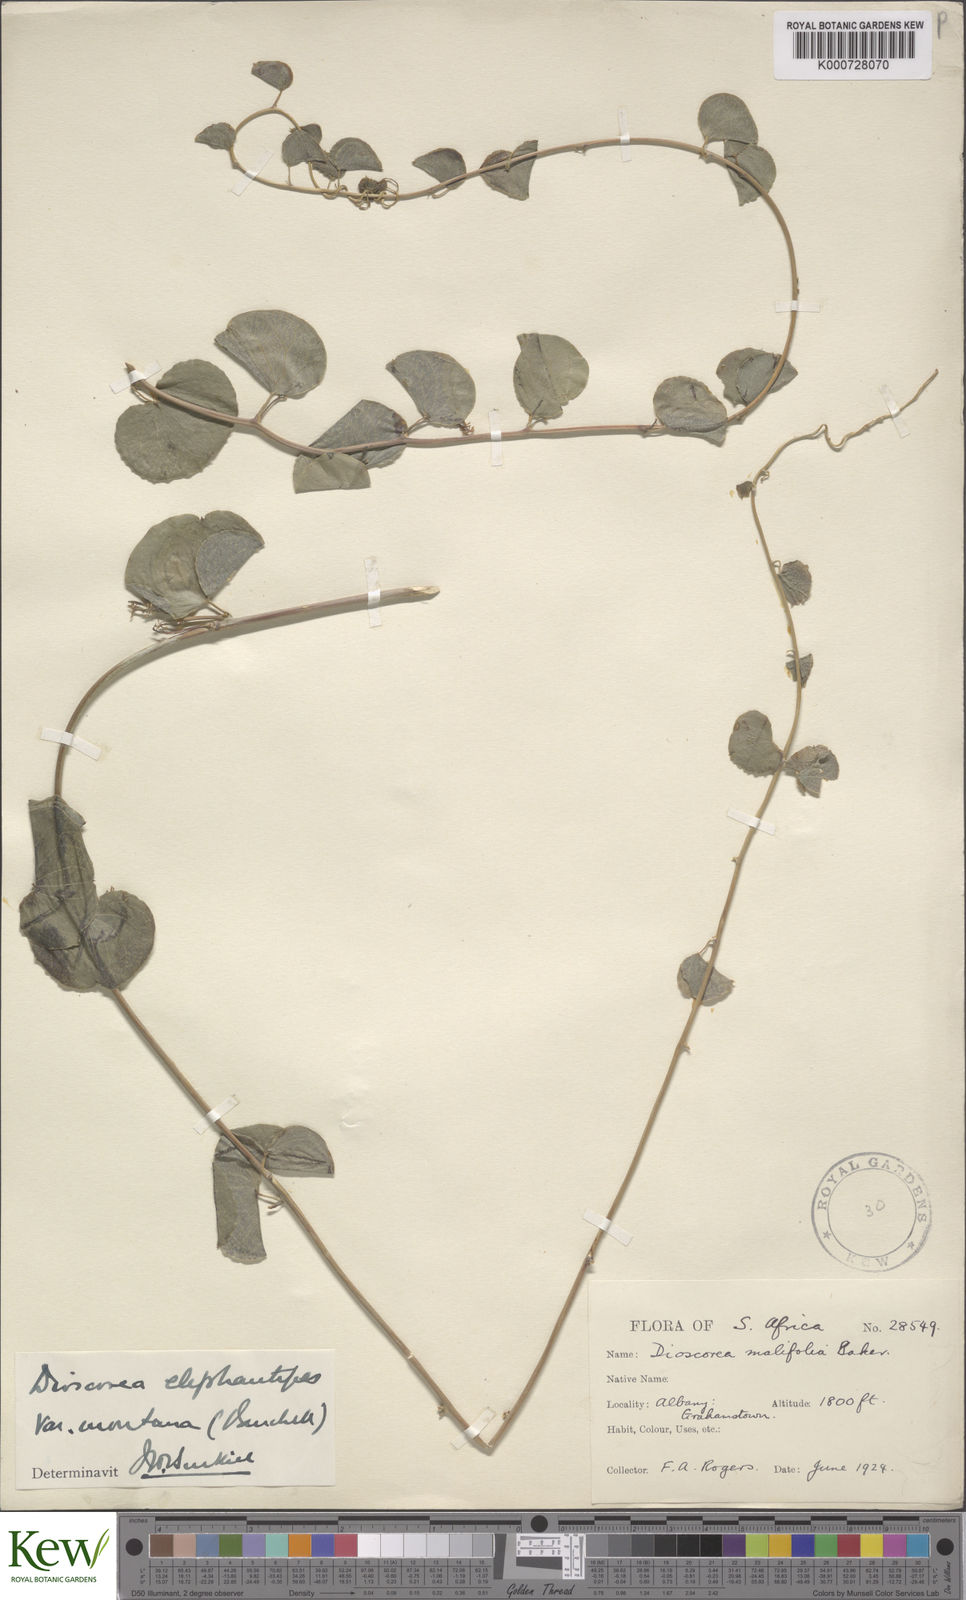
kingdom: Plantae
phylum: Tracheophyta
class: Liliopsida
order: Dioscoreales
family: Dioscoreaceae
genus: Dioscorea
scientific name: Dioscorea
